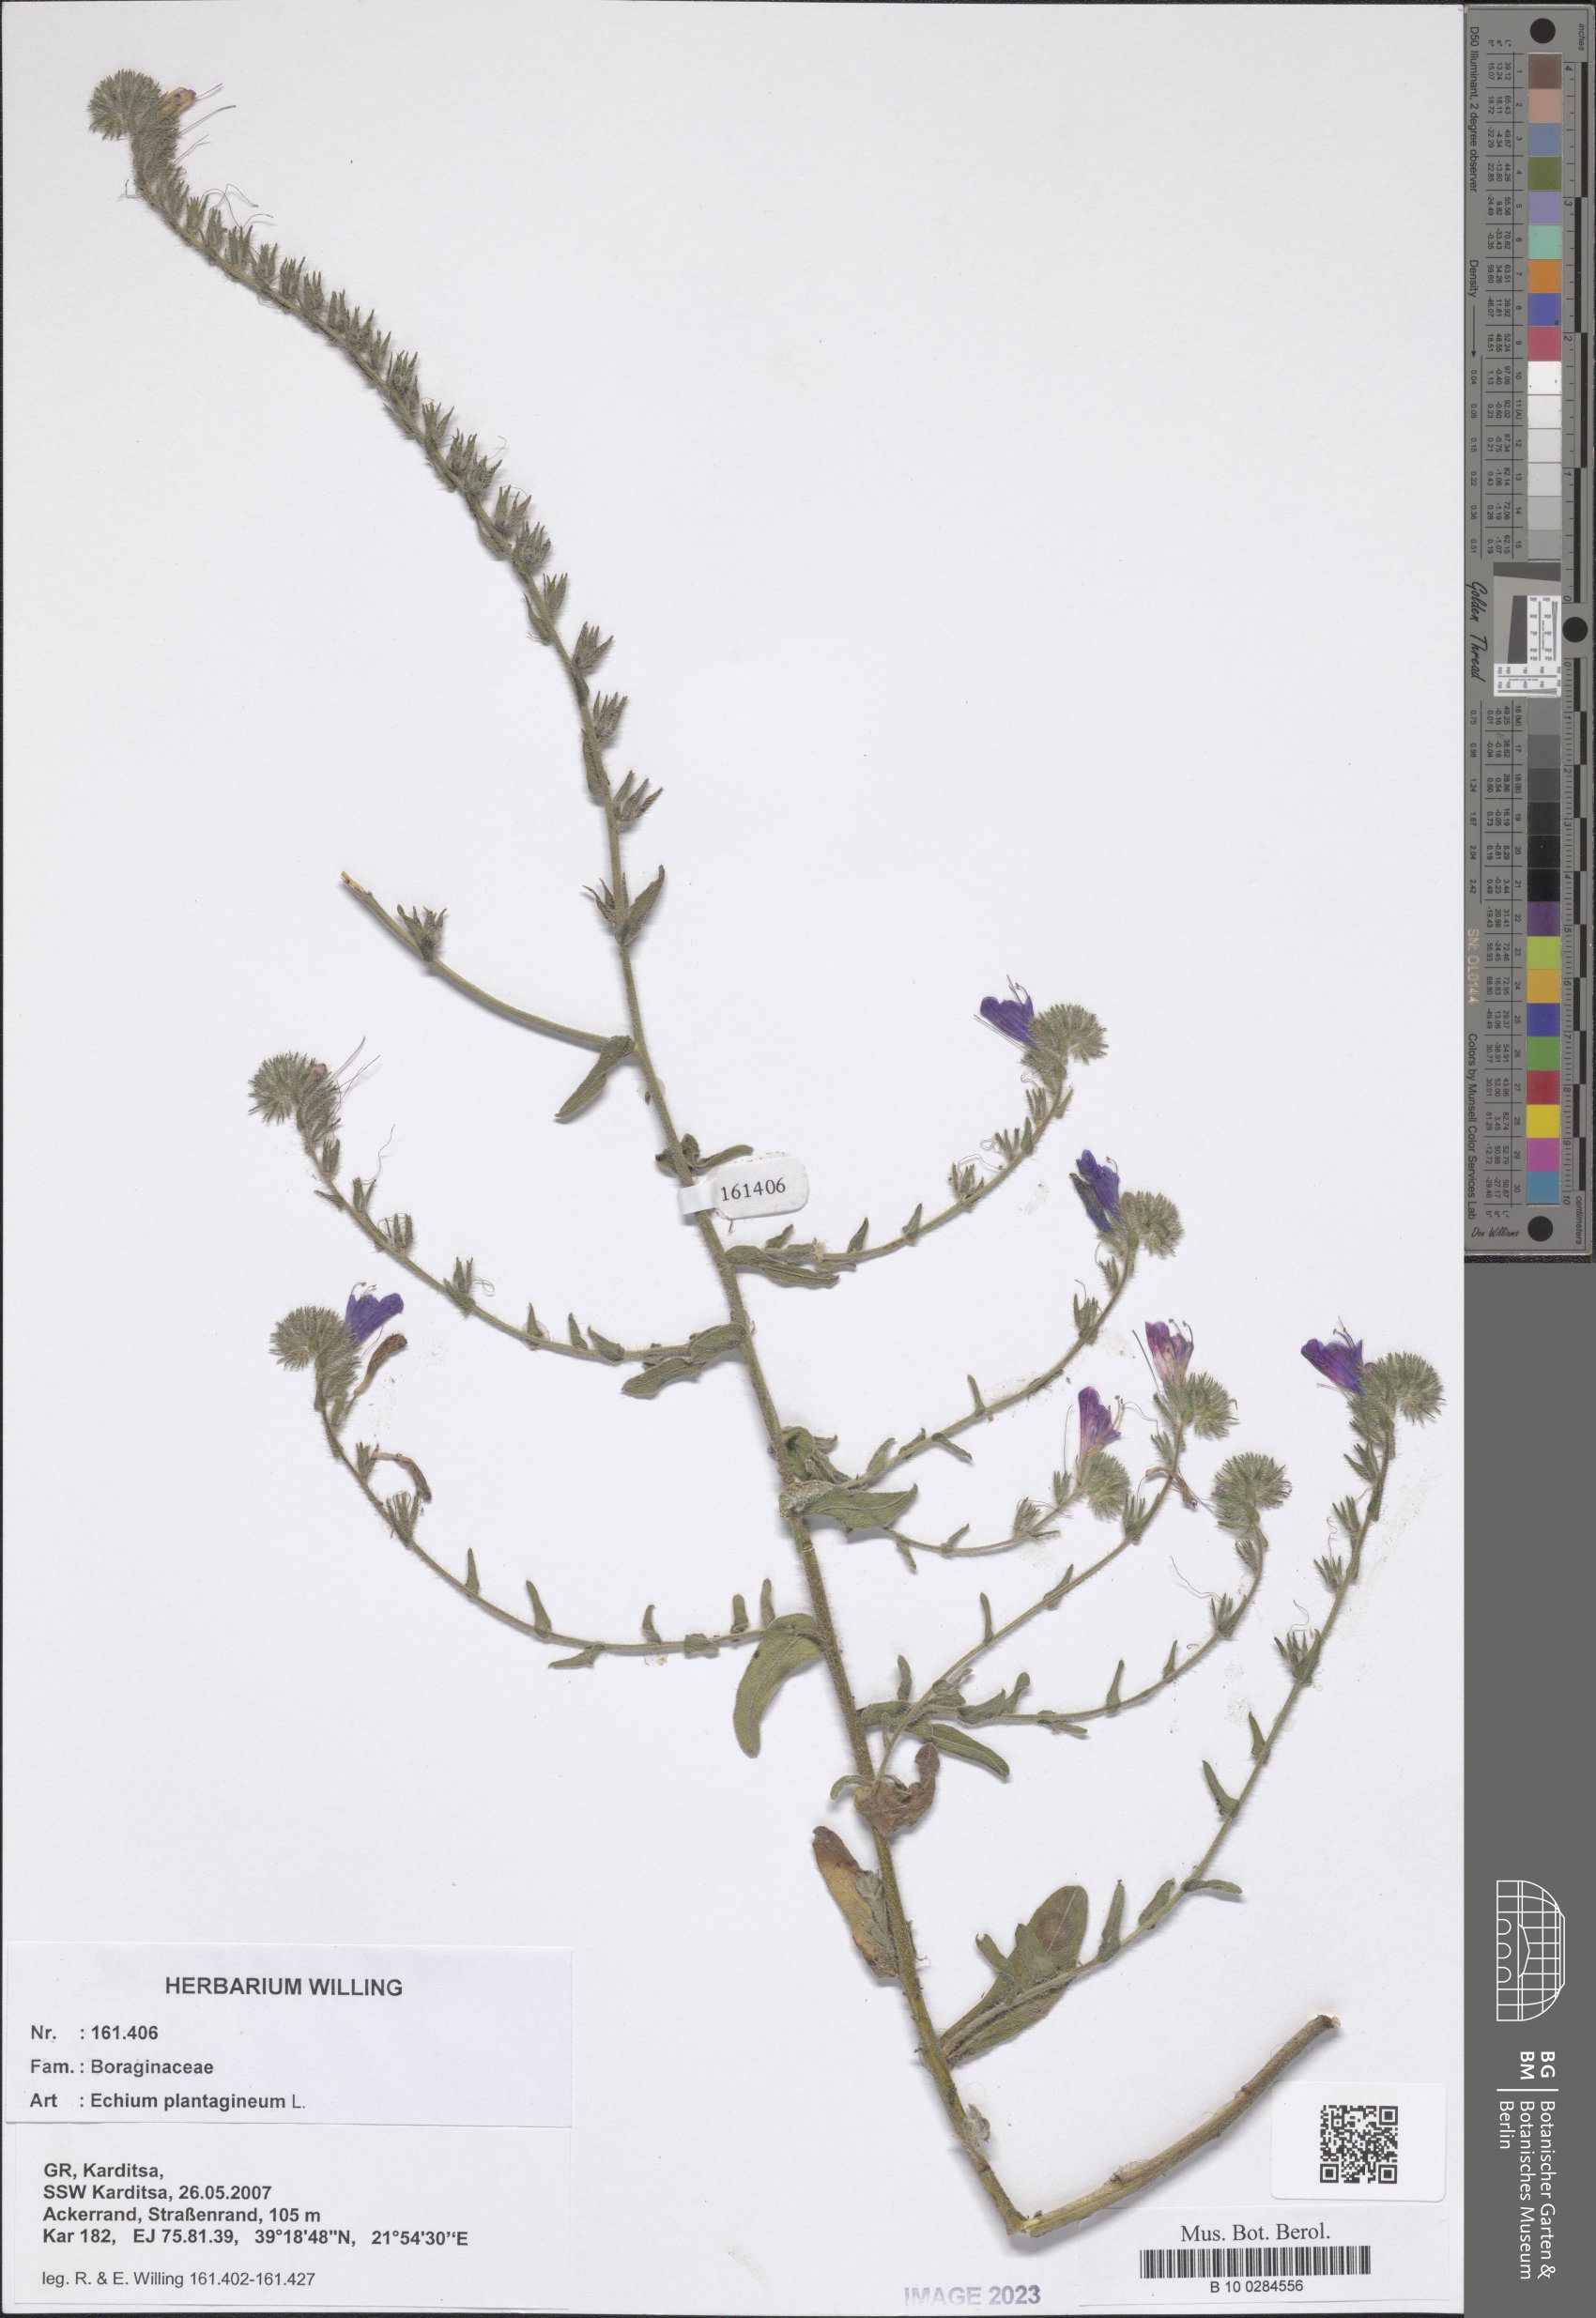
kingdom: Plantae
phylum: Tracheophyta
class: Magnoliopsida
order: Boraginales
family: Boraginaceae
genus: Echium
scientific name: Echium plantagineum
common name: Purple viper's-bugloss
